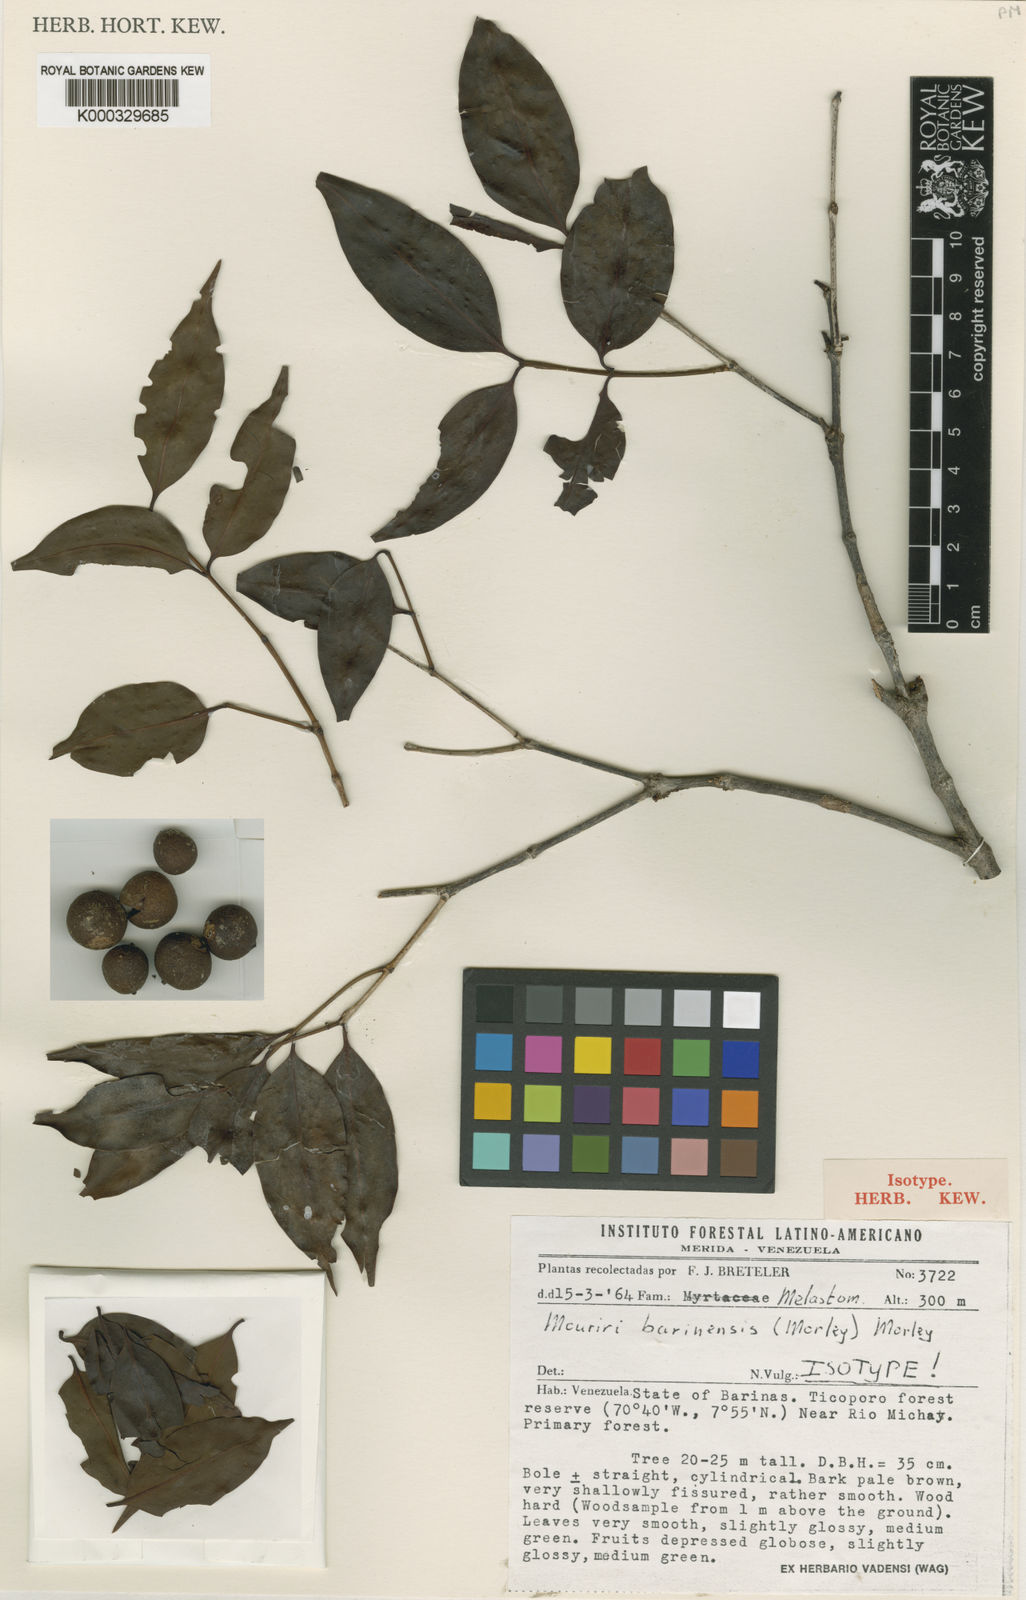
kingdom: Plantae
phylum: Tracheophyta
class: Magnoliopsida
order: Myrtales
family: Melastomataceae
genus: Mouriri
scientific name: Mouriri barinensis
